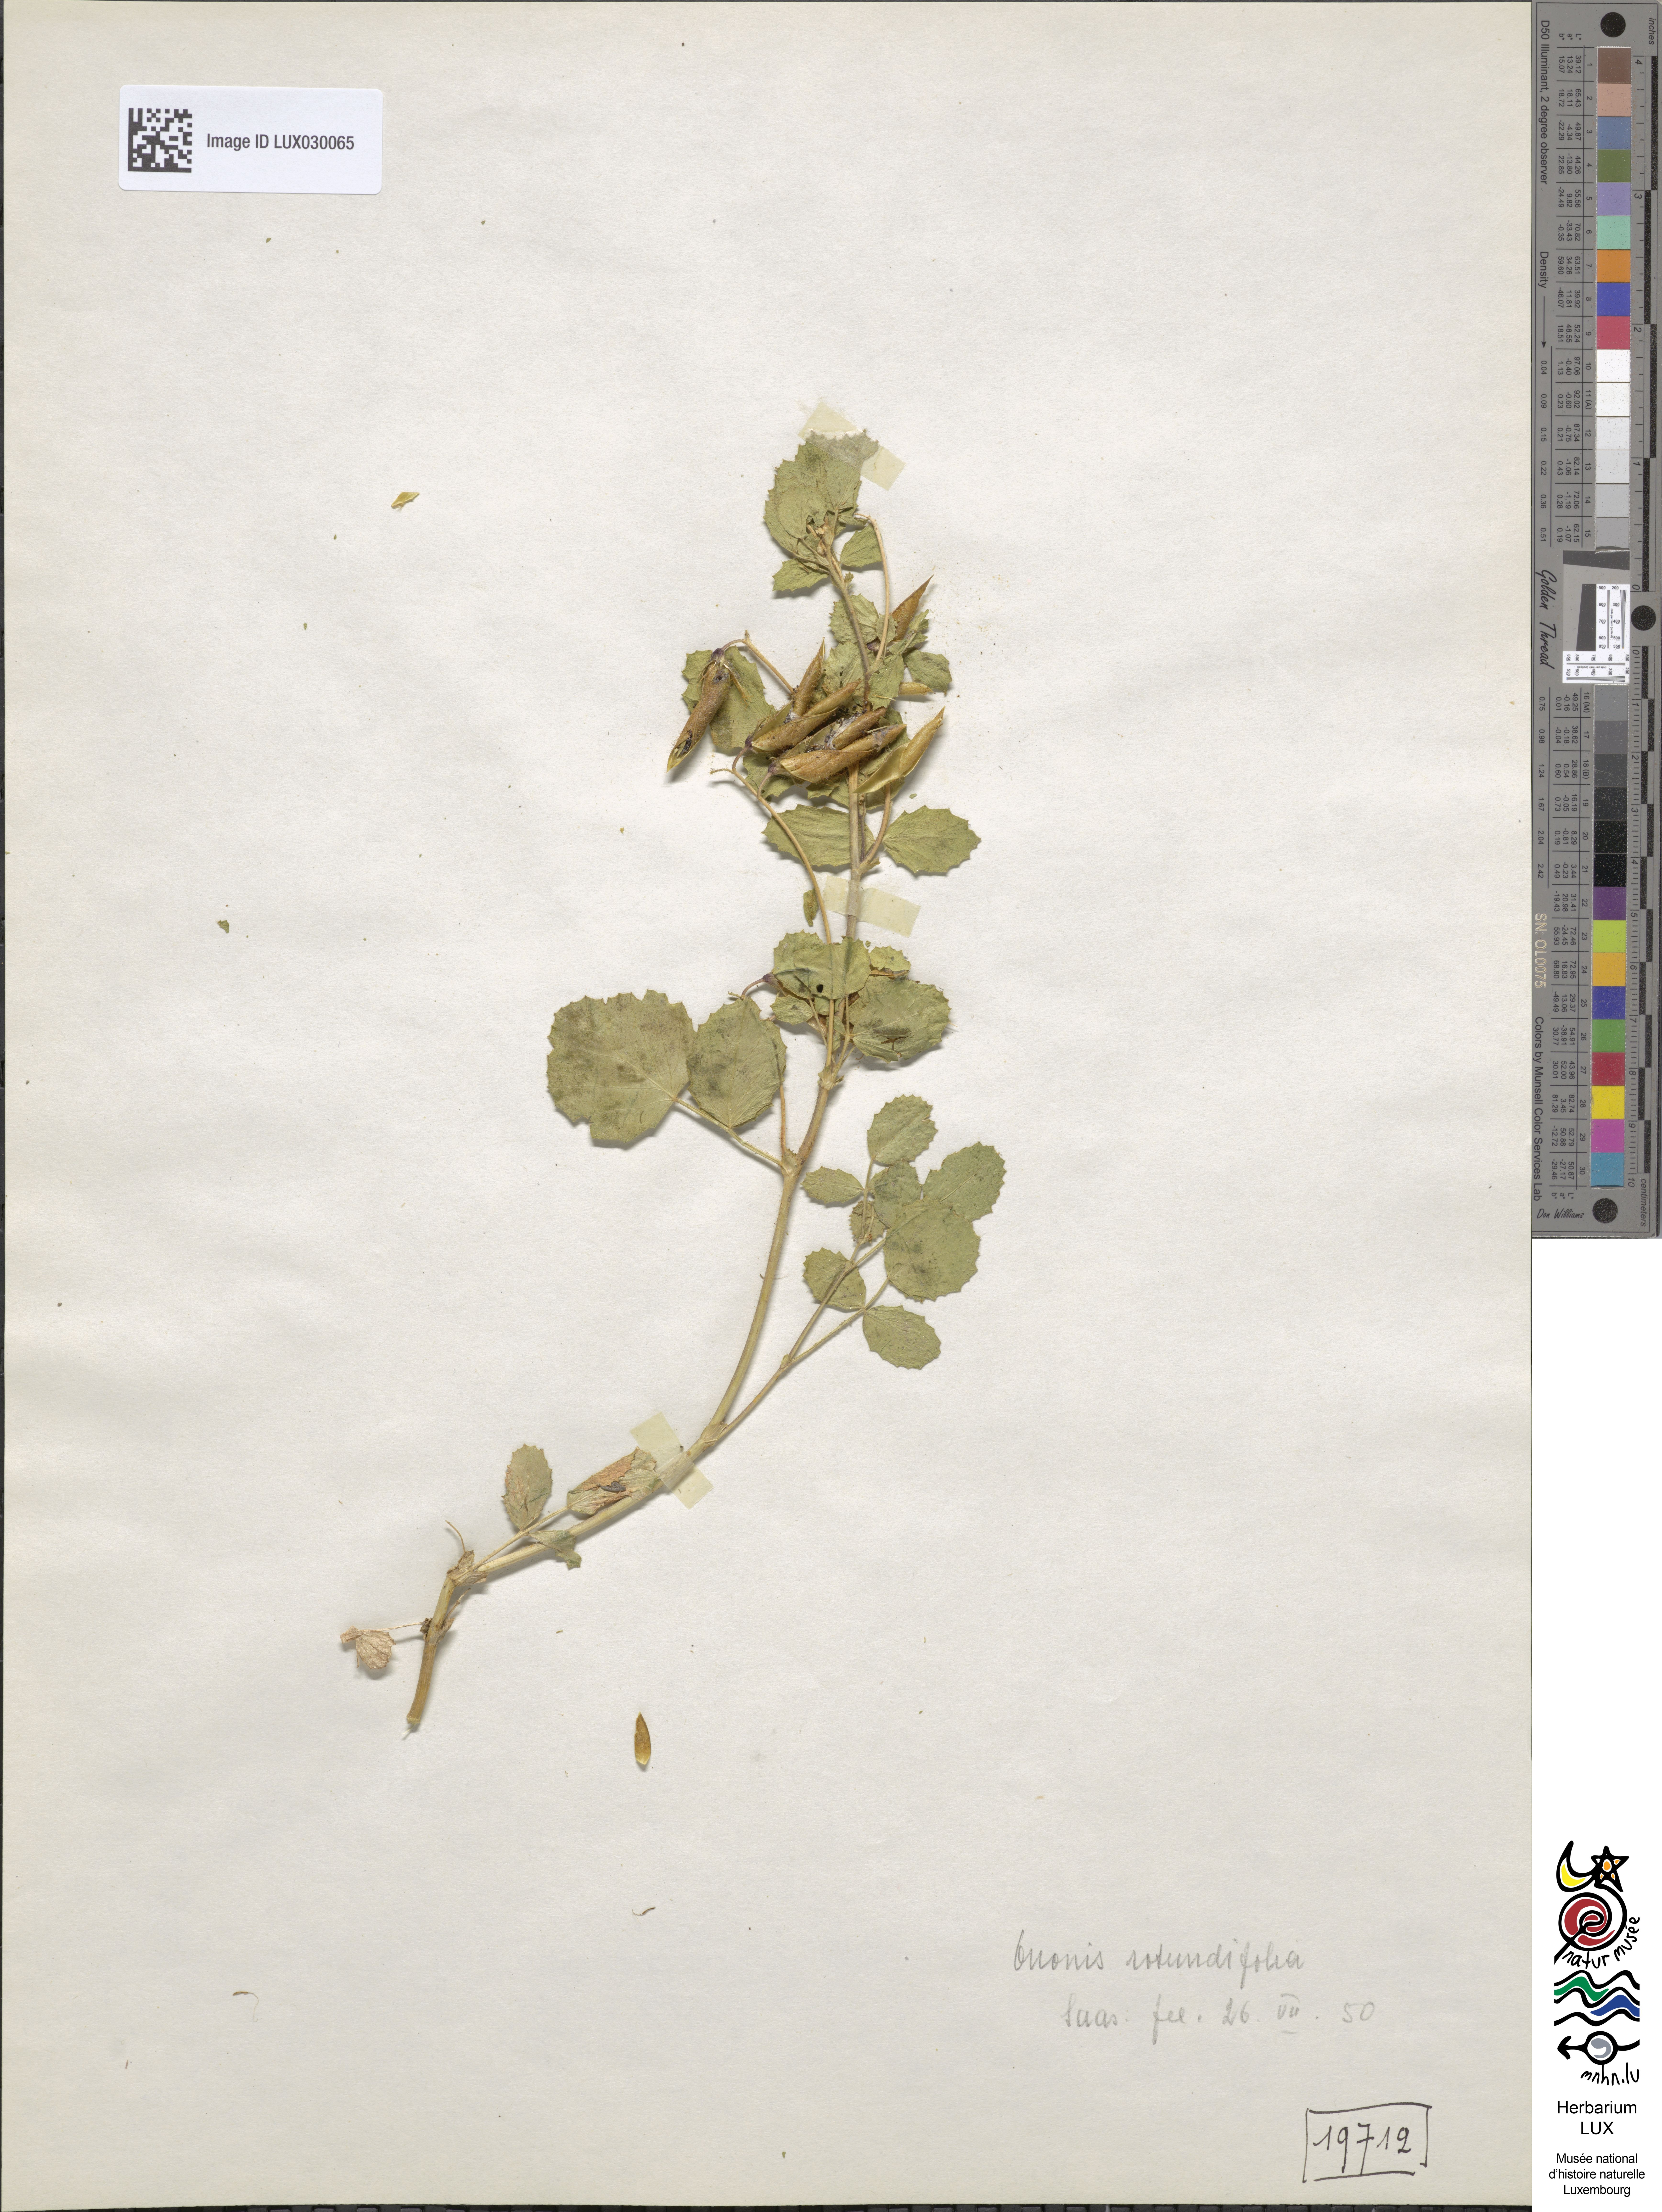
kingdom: Plantae
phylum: Tracheophyta
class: Magnoliopsida
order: Fabales
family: Fabaceae
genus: Ononis
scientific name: Ononis rotundifolia
